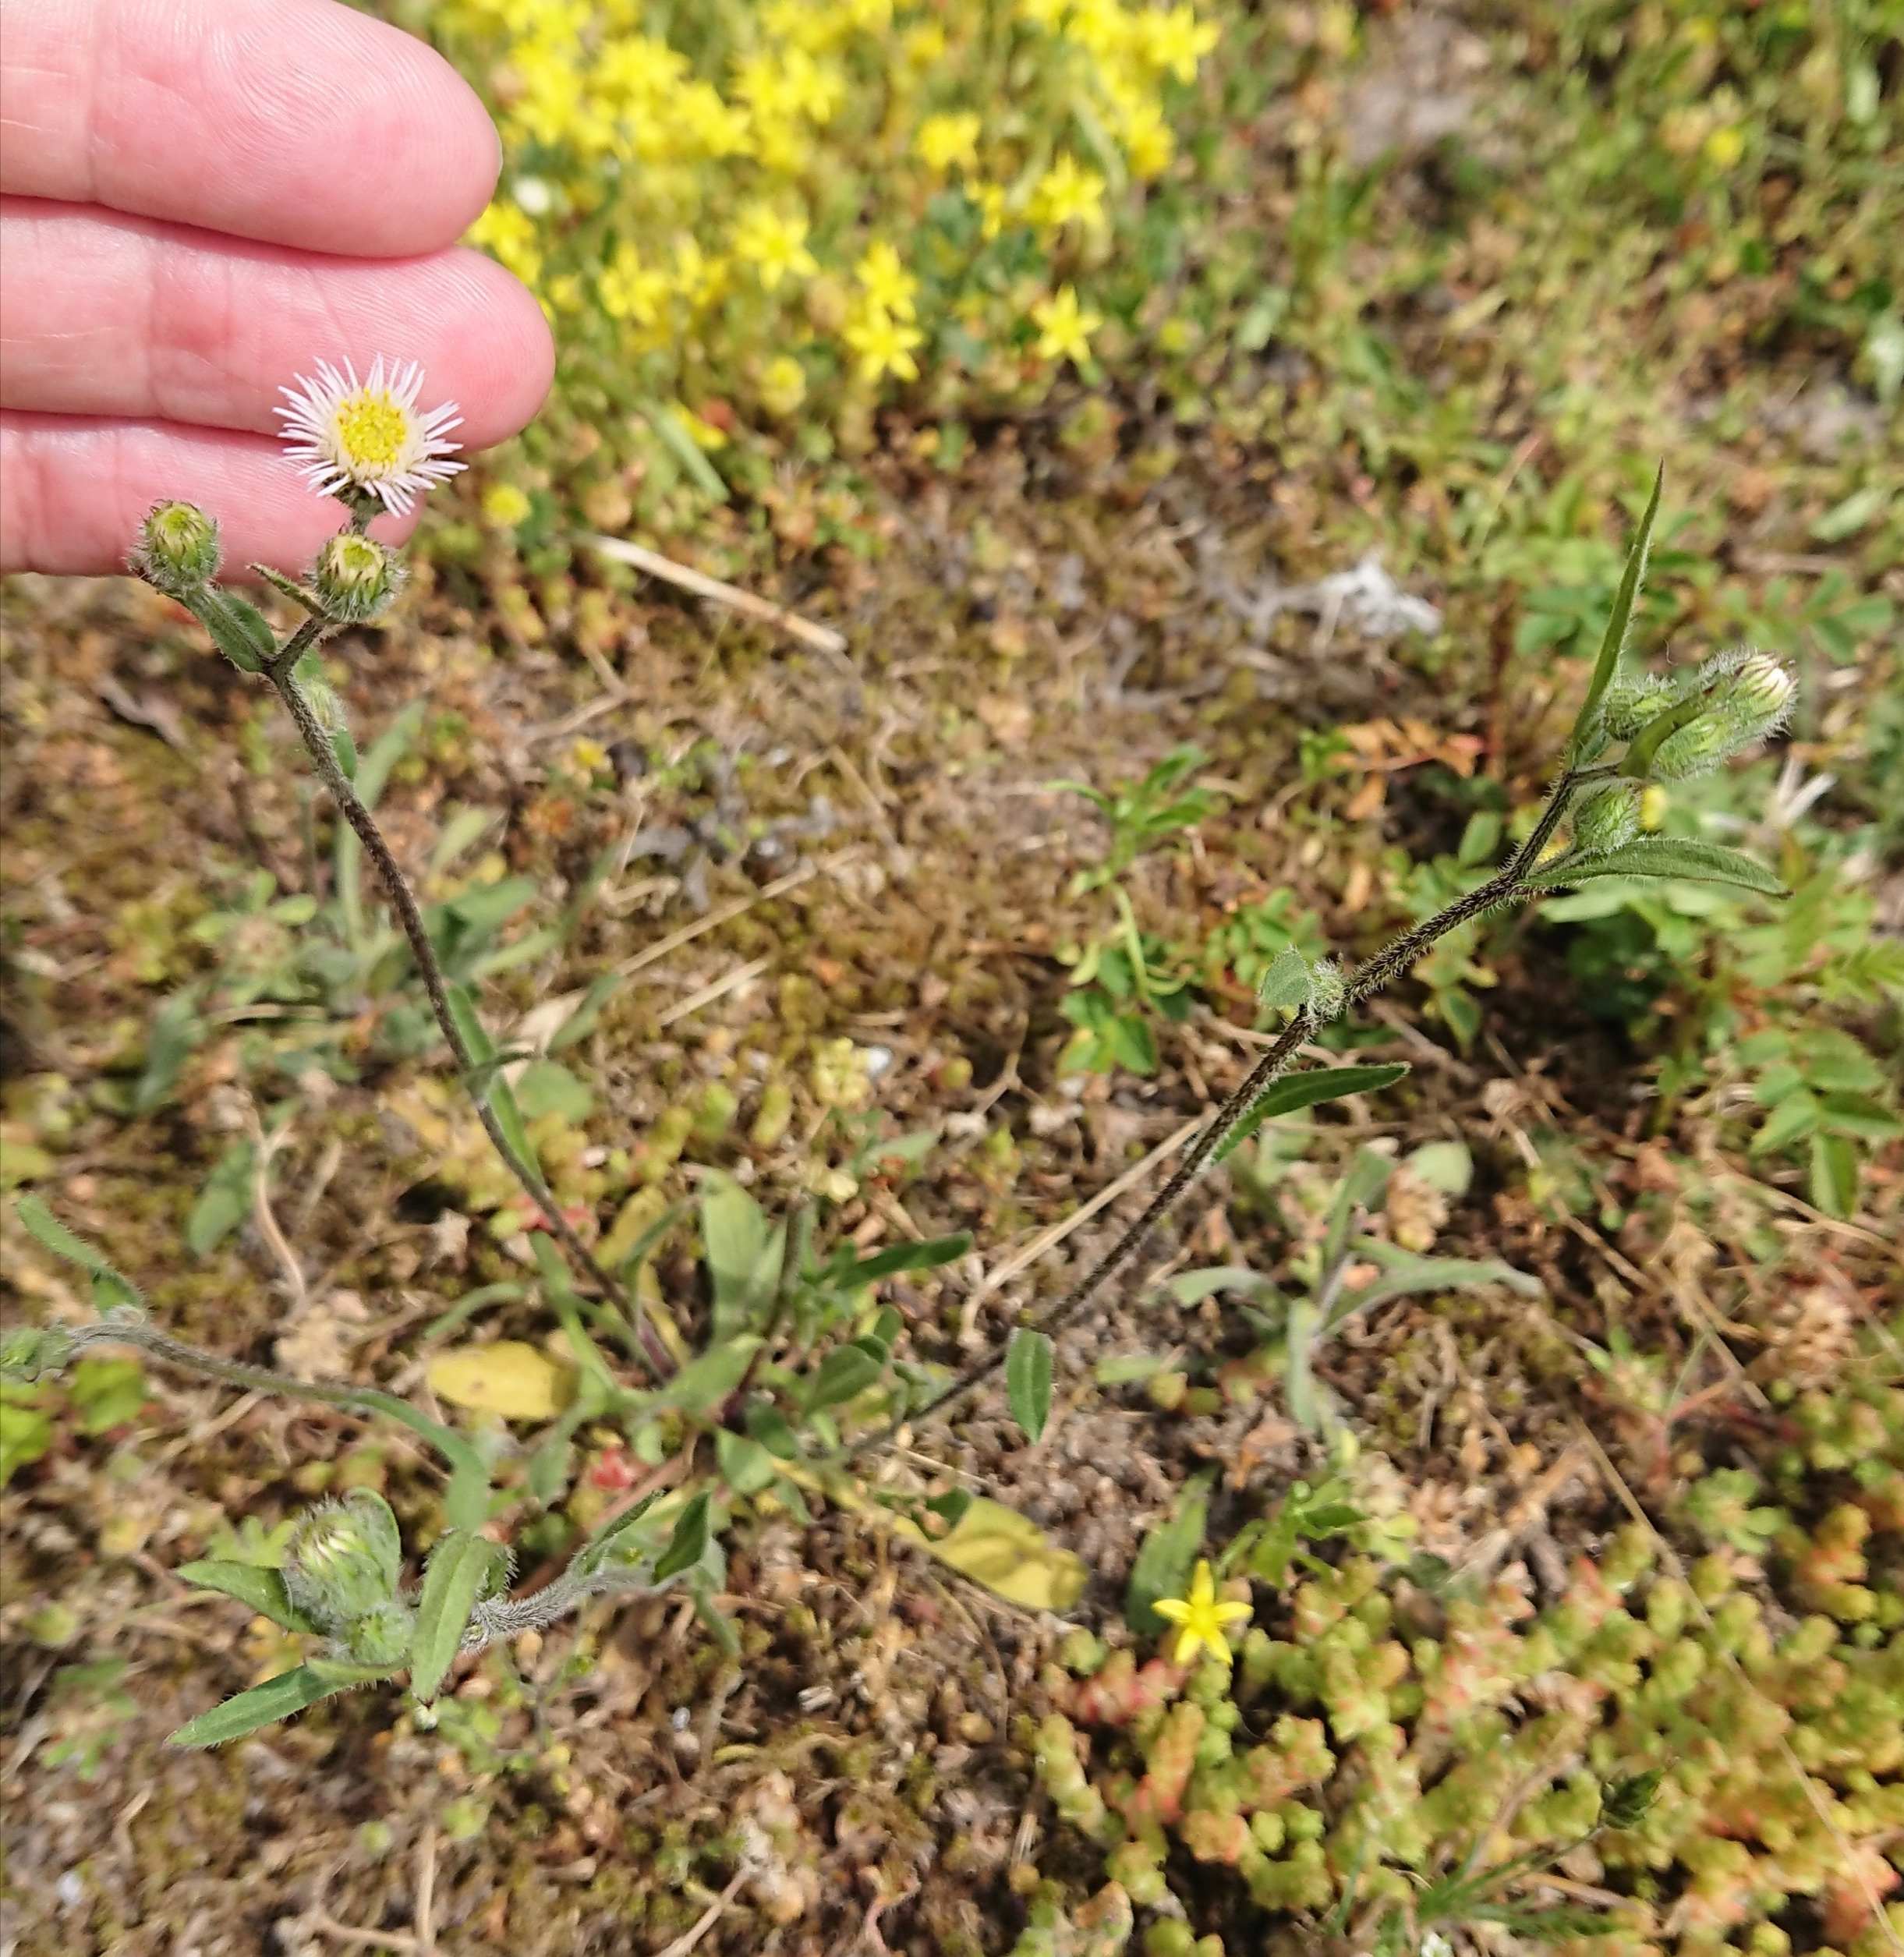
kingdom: Plantae
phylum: Tracheophyta
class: Magnoliopsida
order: Asterales
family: Asteraceae
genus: Erigeron
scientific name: Erigeron acris
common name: Bitter bakkestjerne
